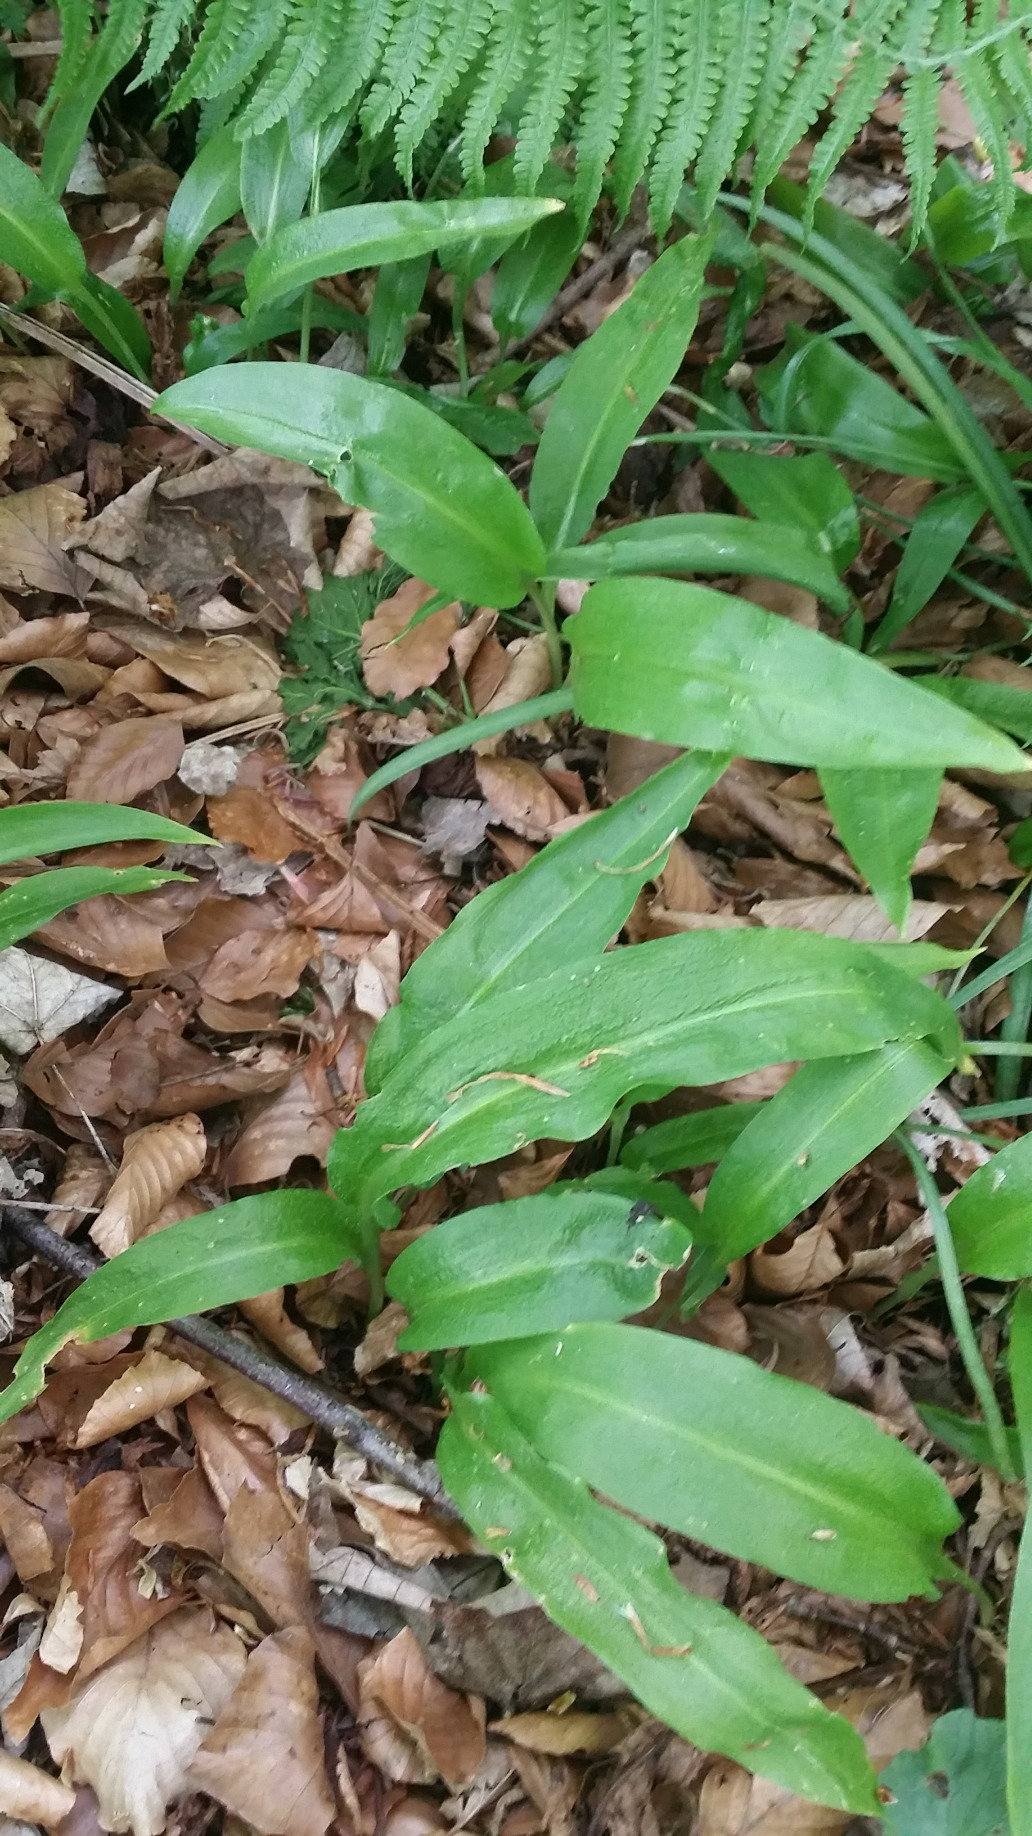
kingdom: Plantae
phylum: Tracheophyta
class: Liliopsida
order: Asparagales
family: Amaryllidaceae
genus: Allium
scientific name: Allium ursinum
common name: Rams-løg
